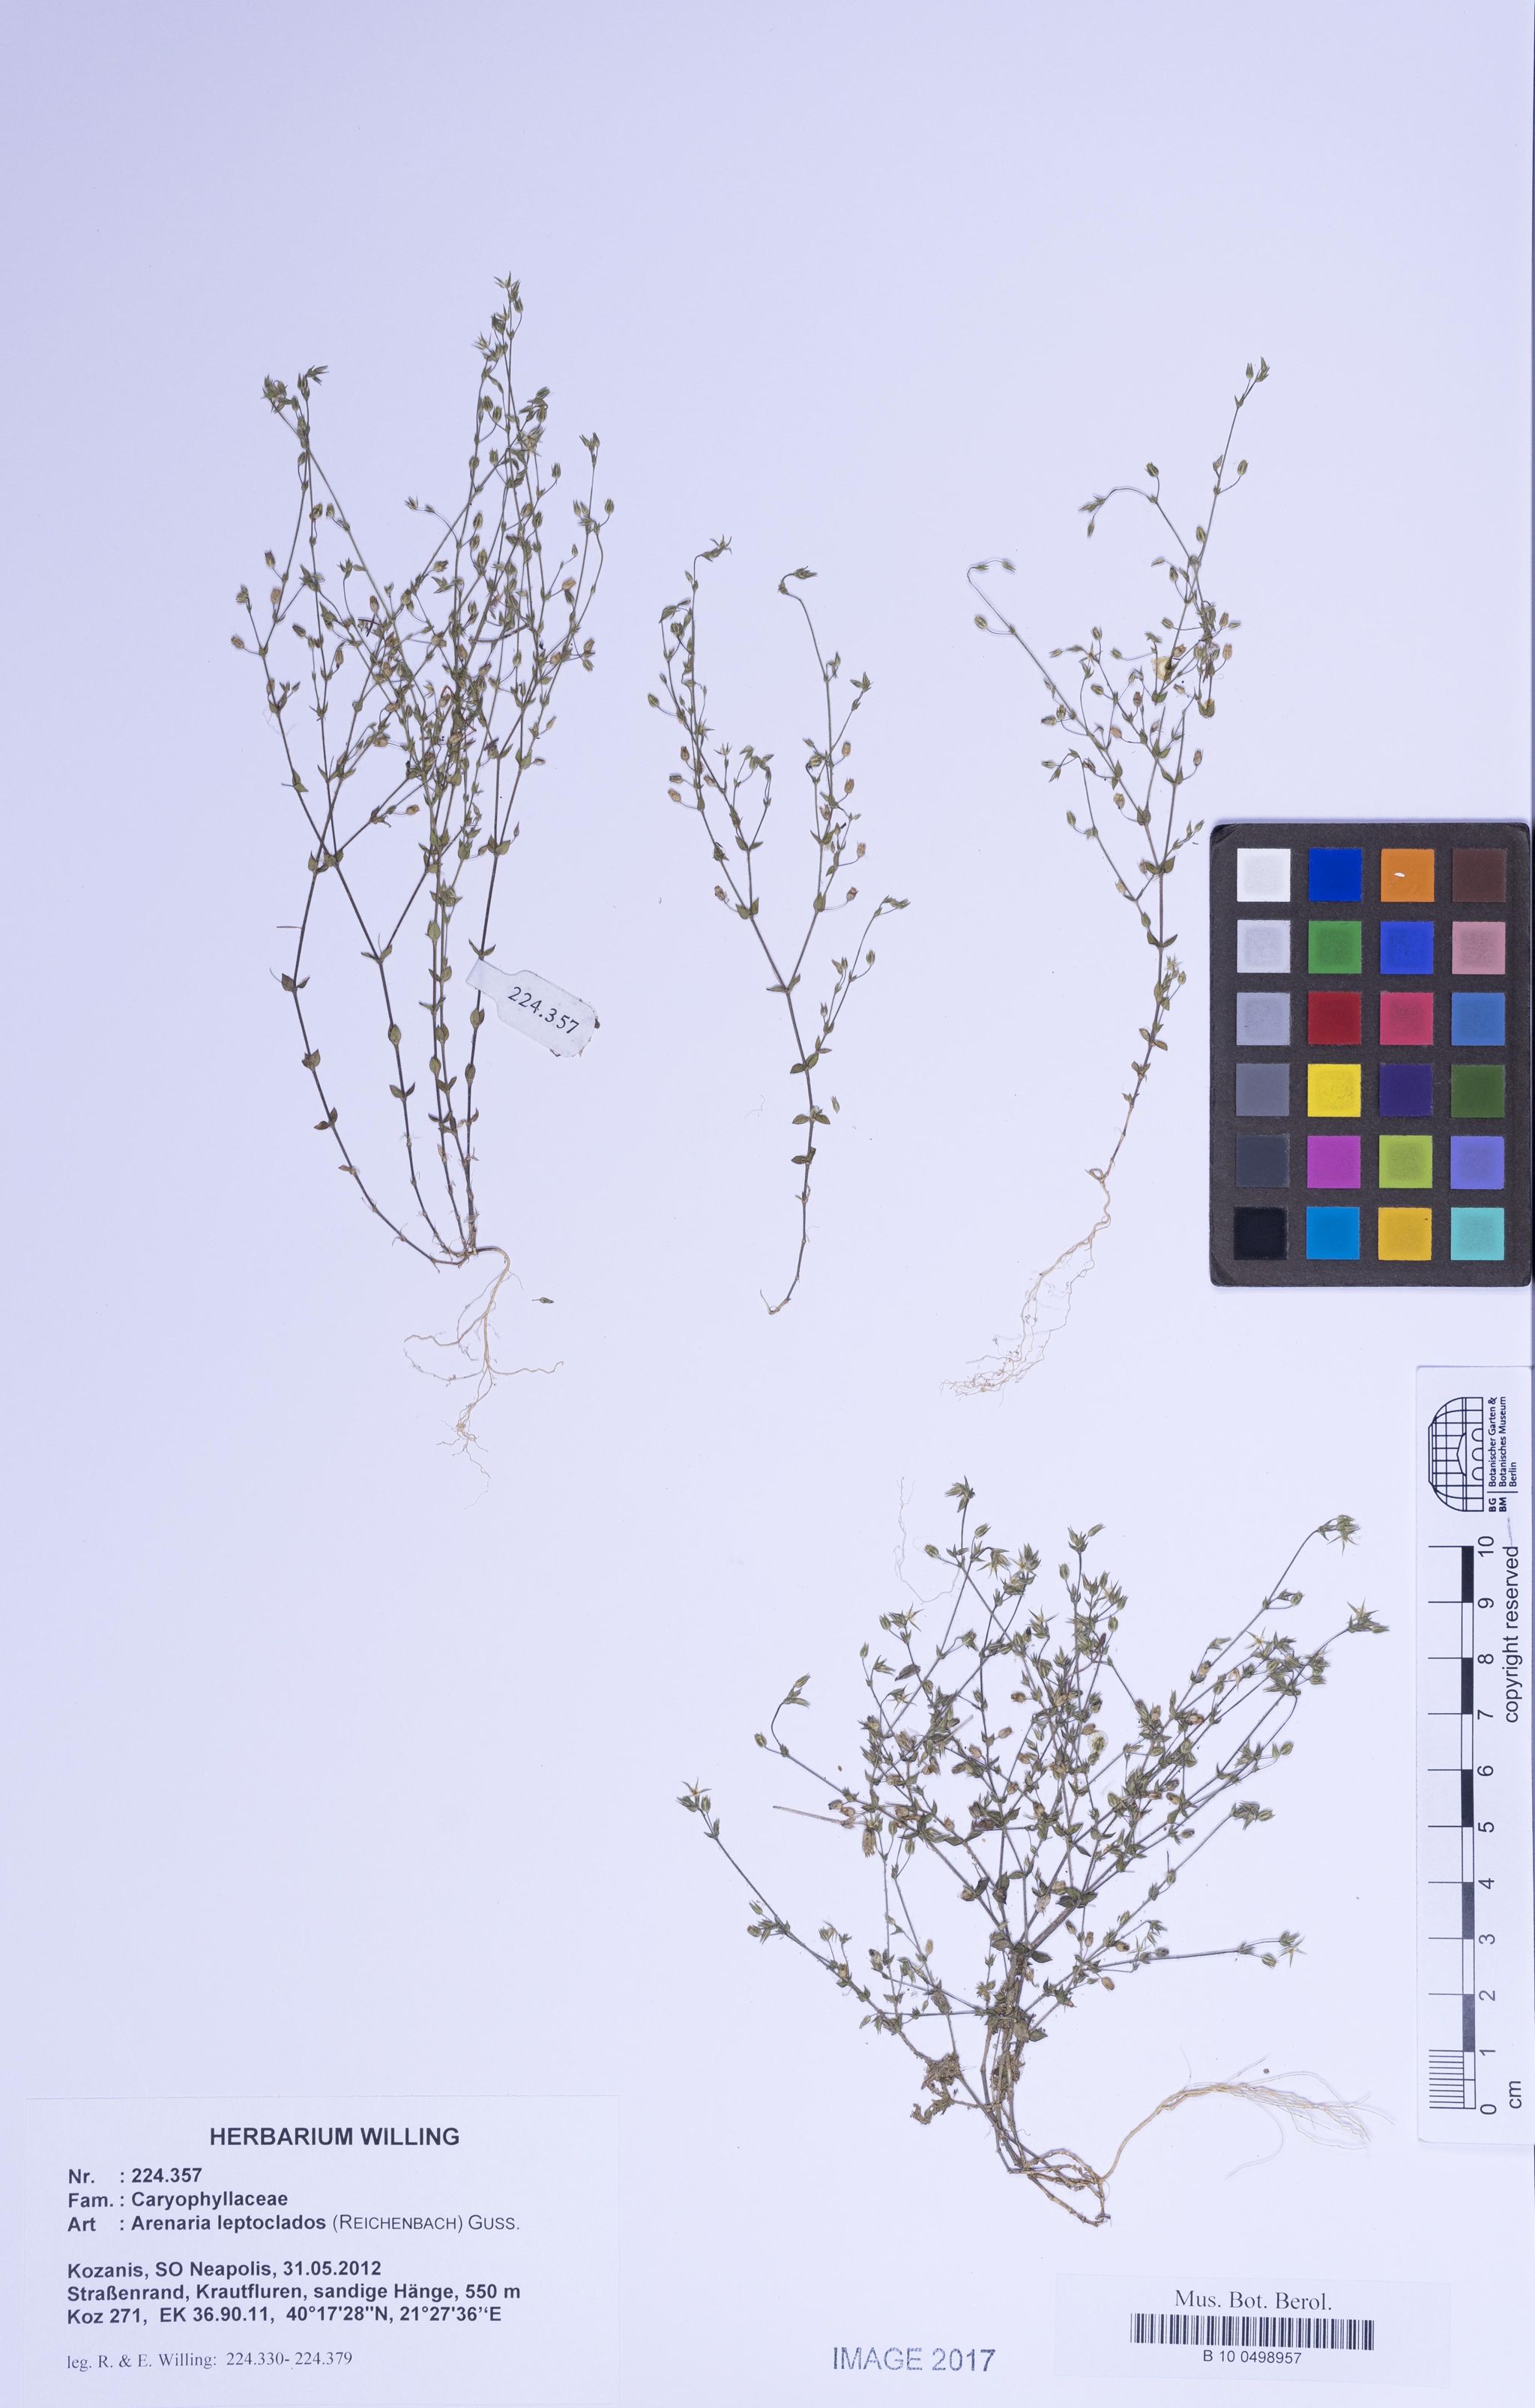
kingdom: Plantae
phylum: Tracheophyta
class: Magnoliopsida
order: Caryophyllales
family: Caryophyllaceae
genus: Arenaria
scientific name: Arenaria leptoclados
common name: Thyme-leaved sandwort
